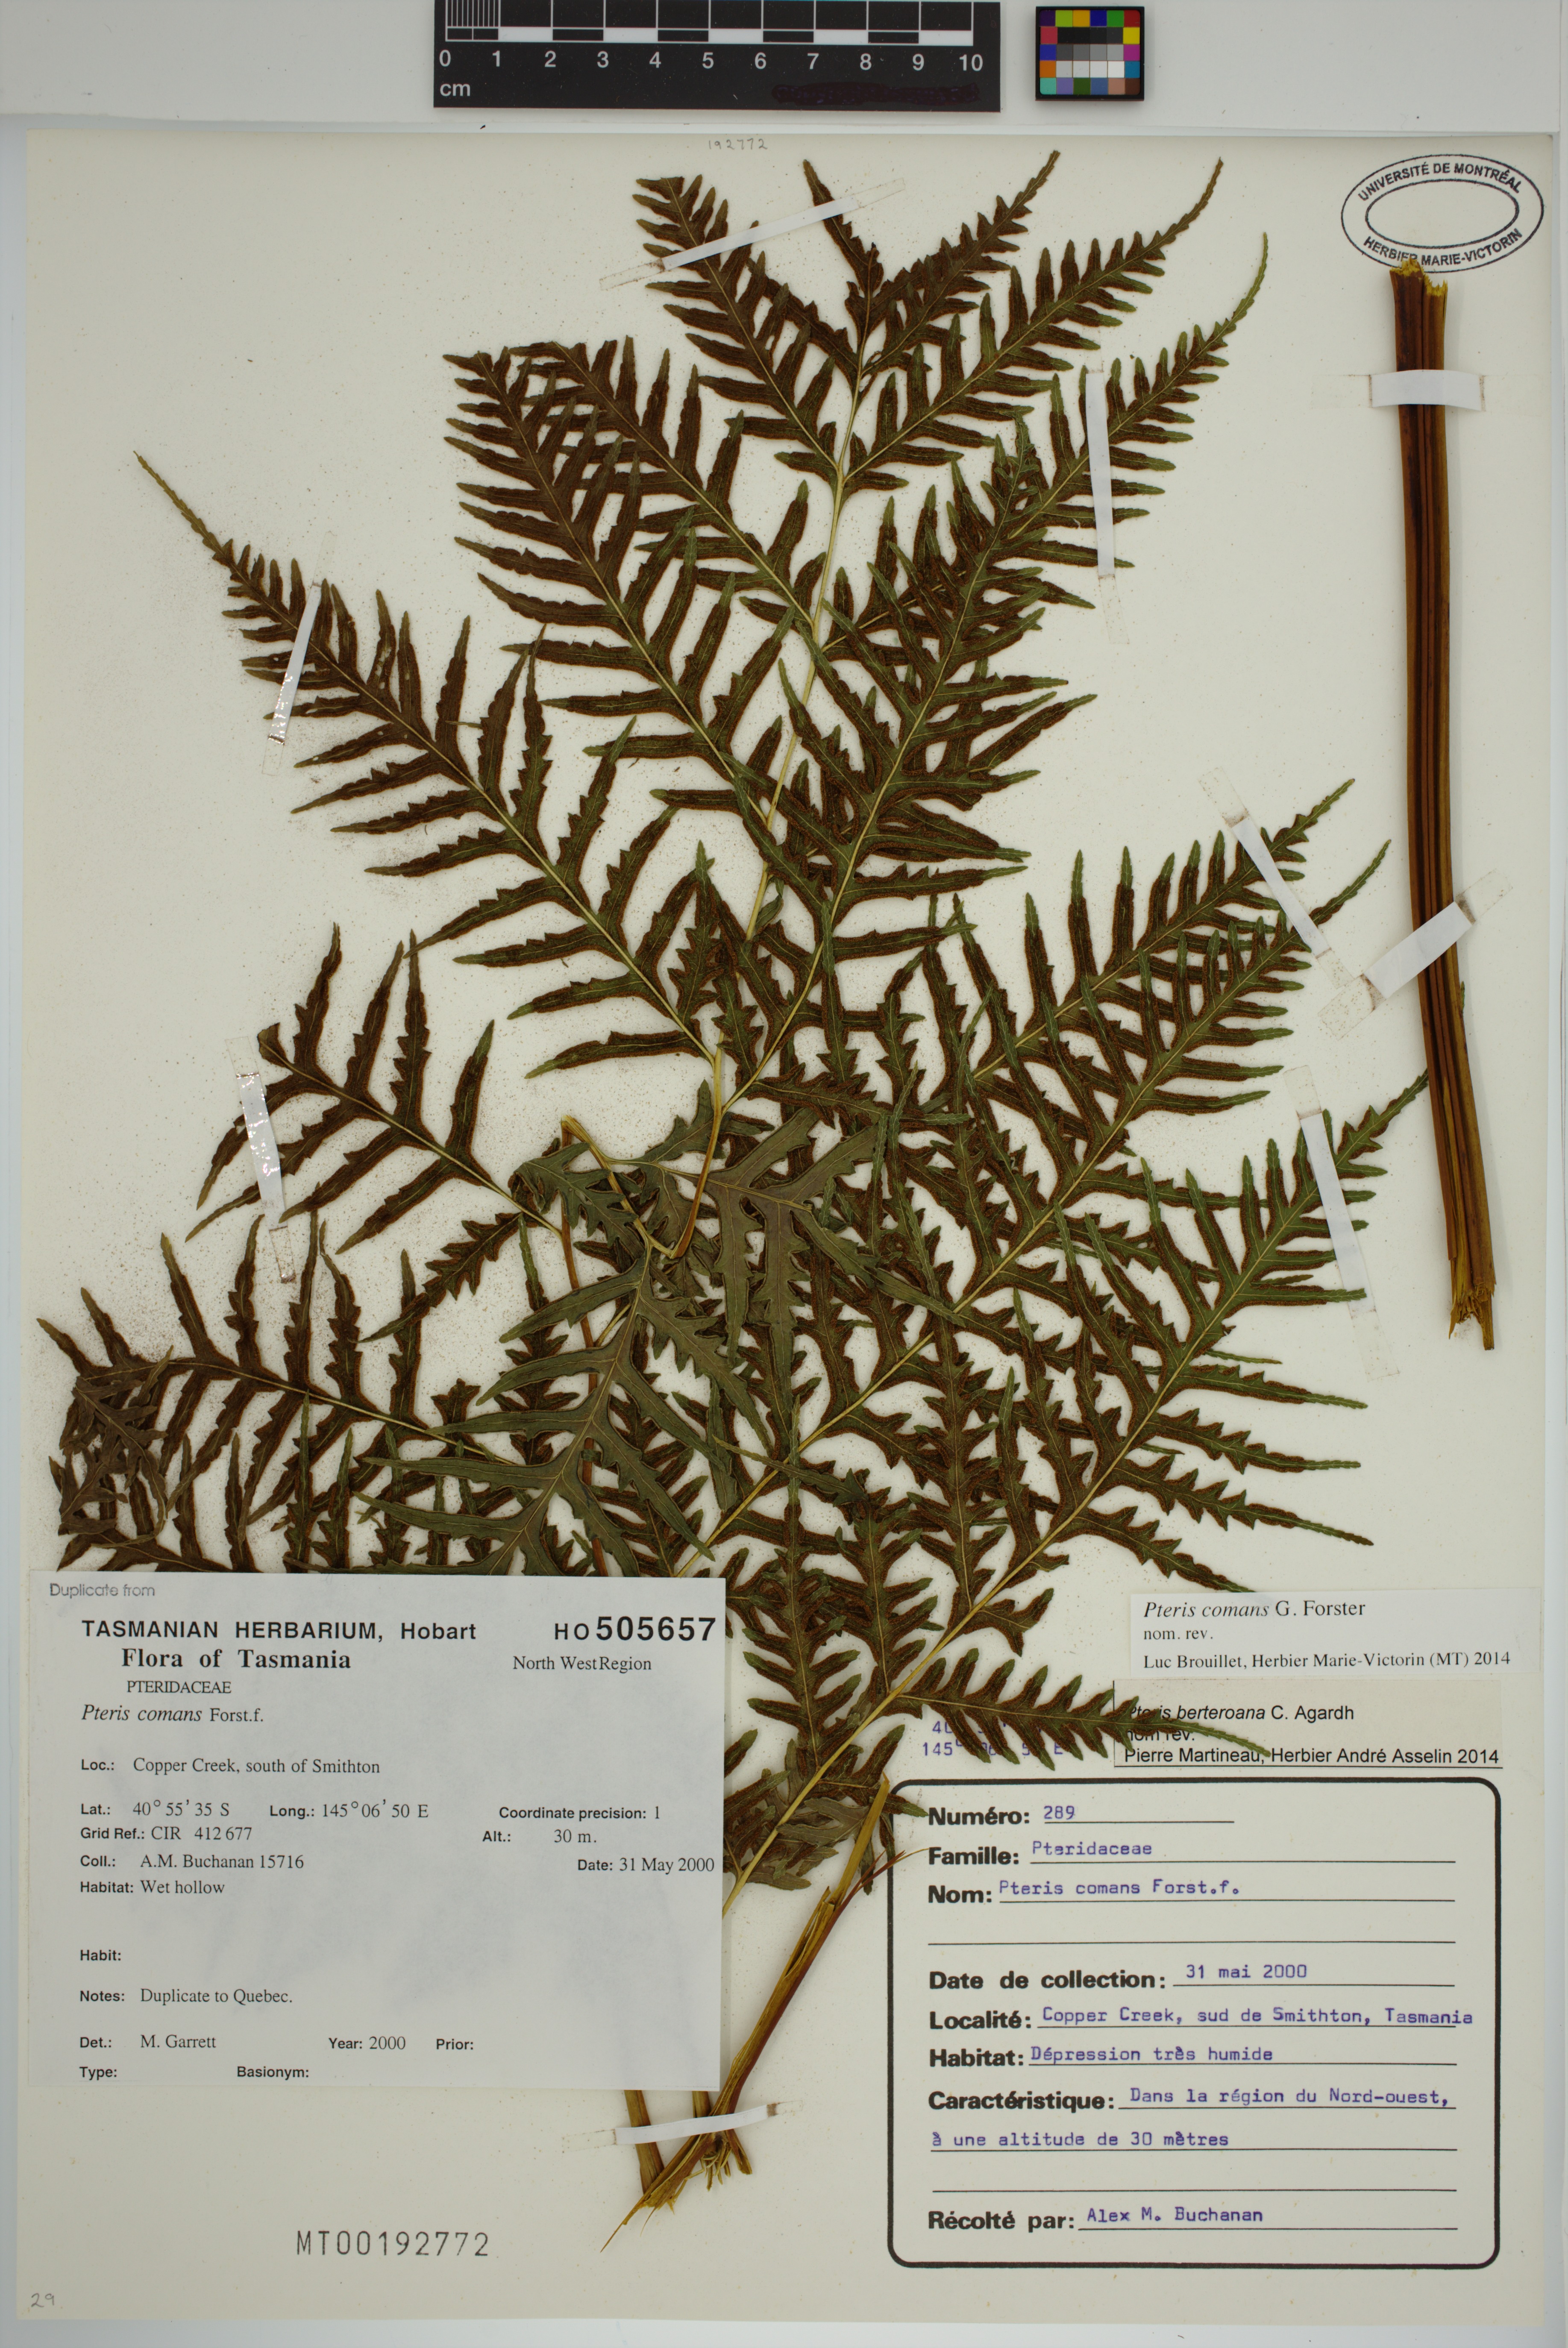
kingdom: Plantae
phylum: Tracheophyta
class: Polypodiopsida
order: Polypodiales
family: Pteridaceae
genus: Pteris
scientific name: Pteris comans
